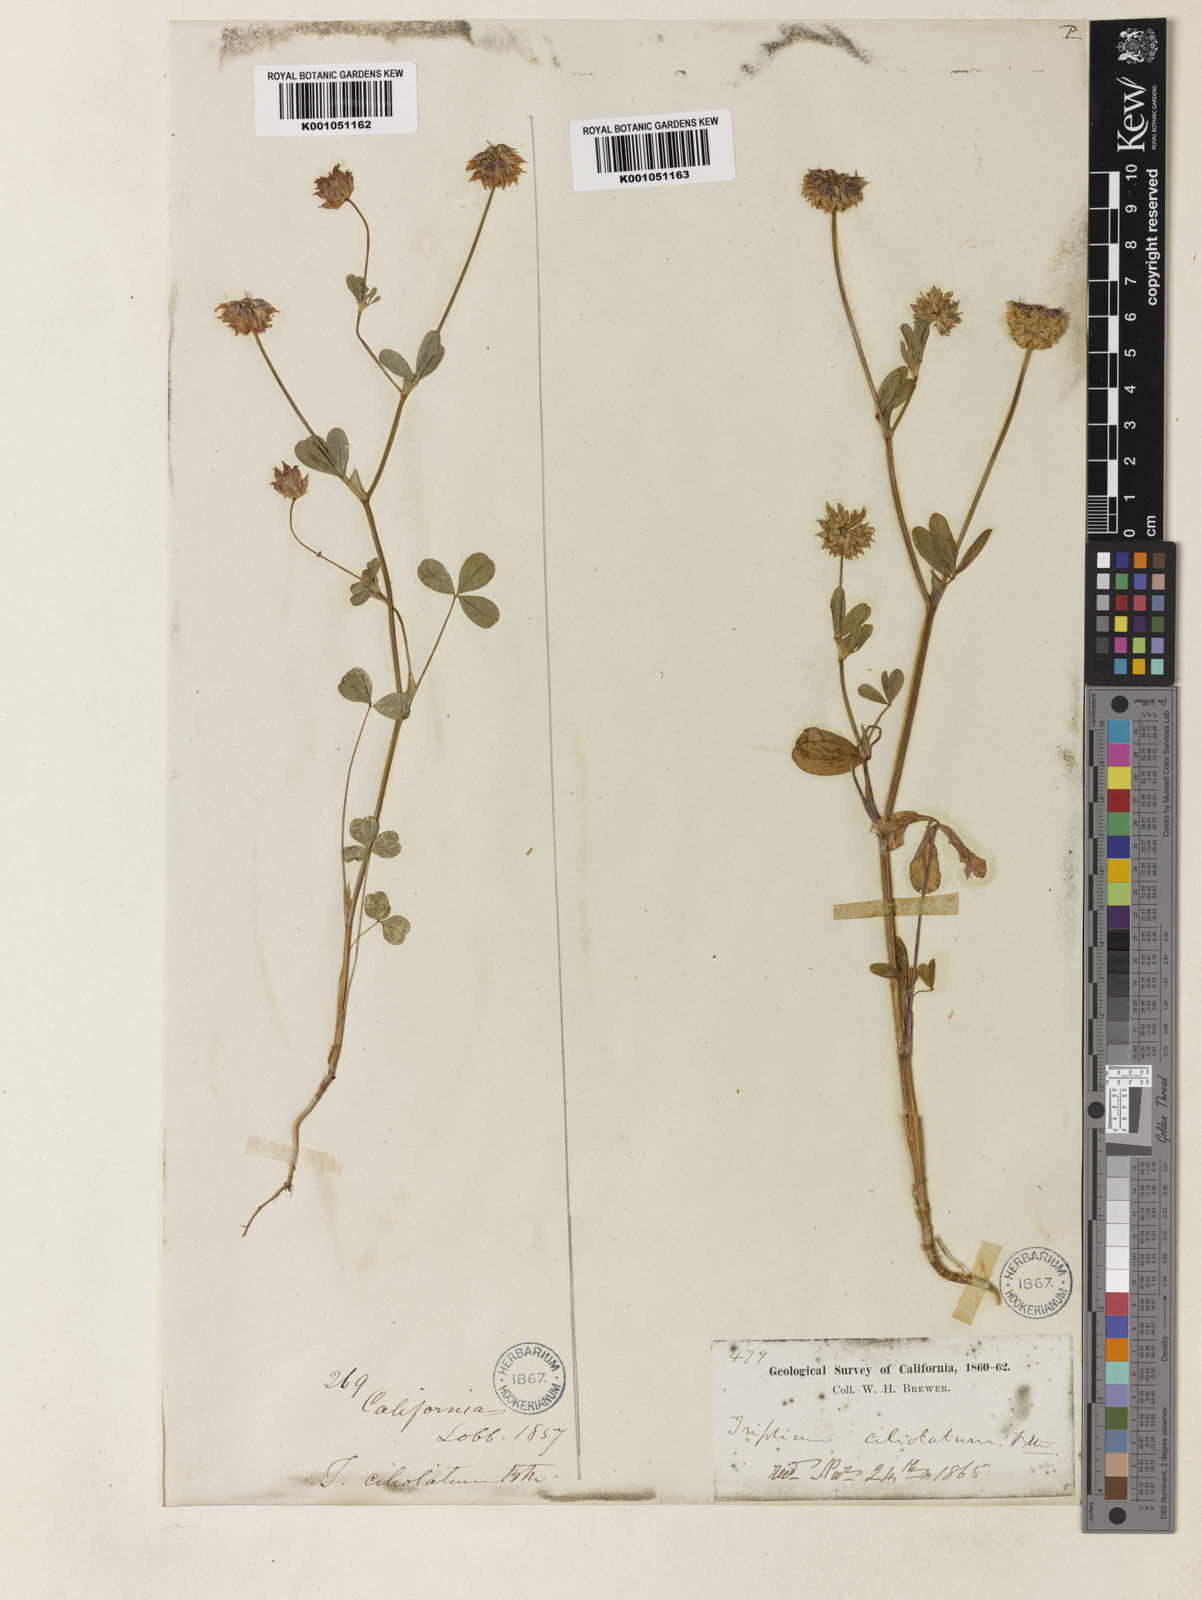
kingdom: Plantae
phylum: Tracheophyta
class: Magnoliopsida
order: Fabales
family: Fabaceae
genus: Trifolium
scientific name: Trifolium ciliolatum
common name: Foothill clover
